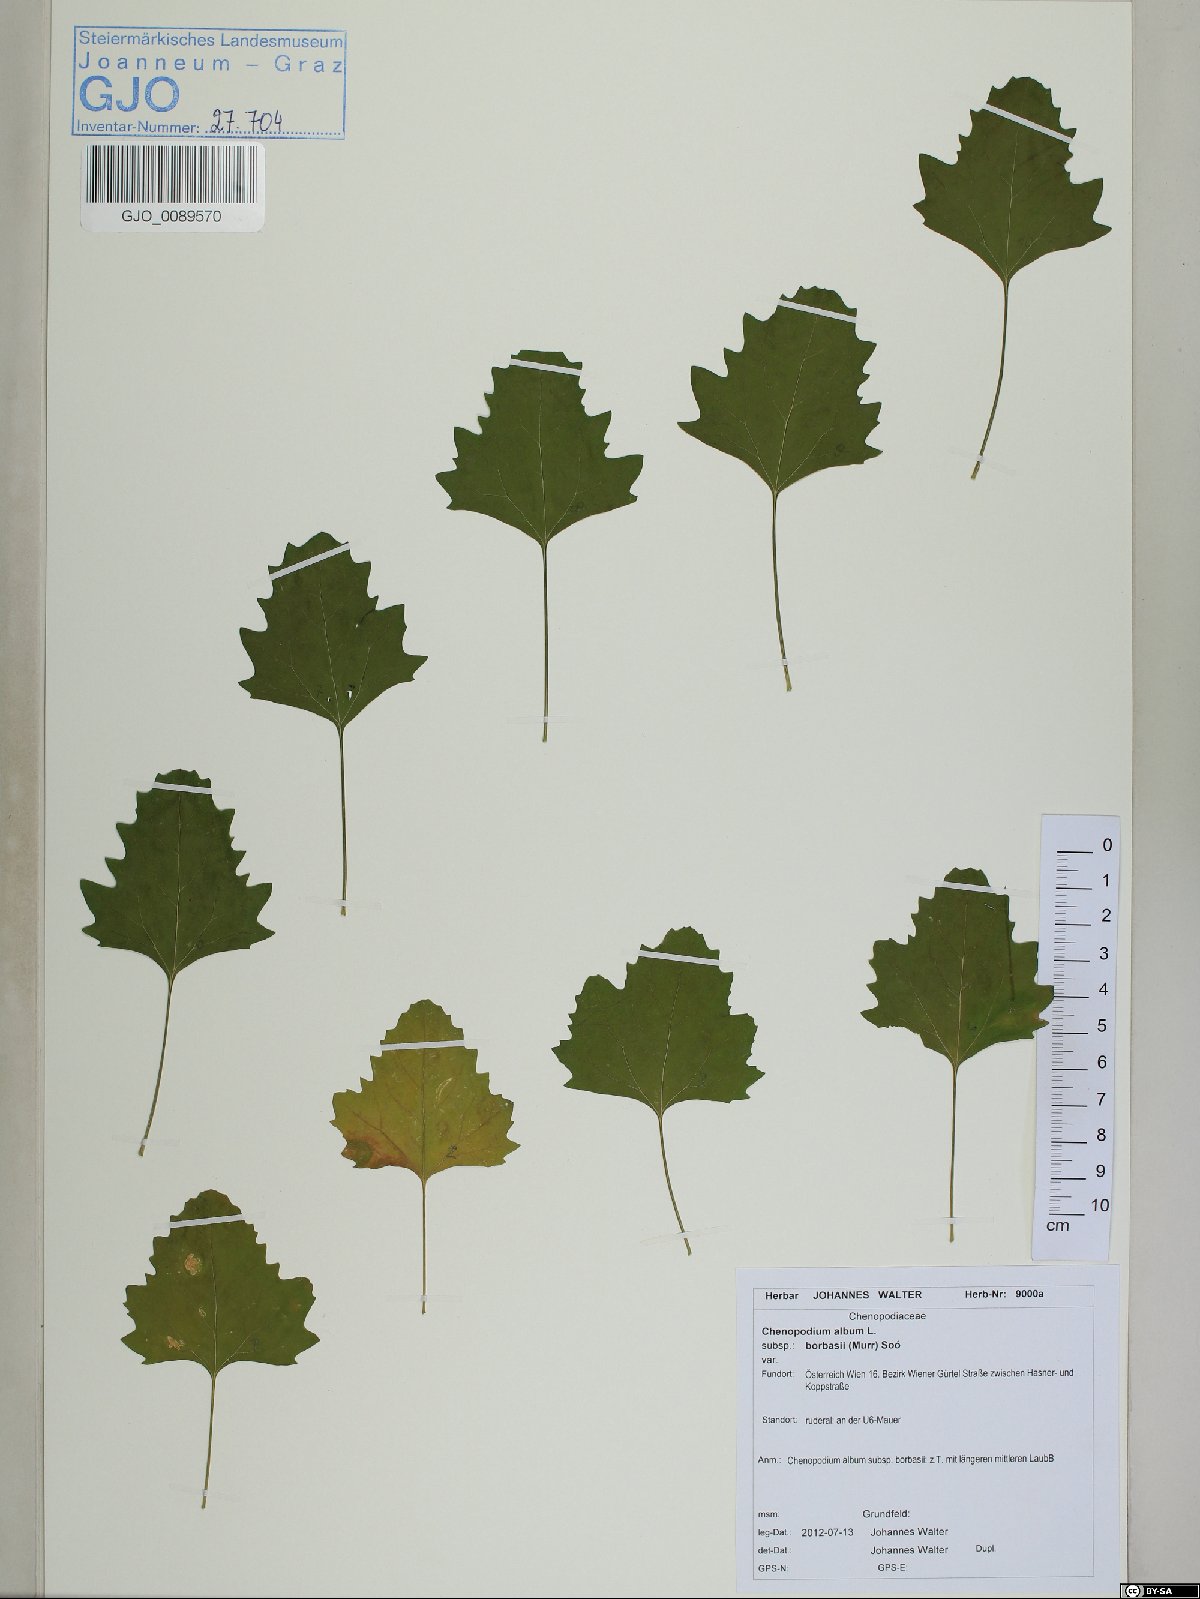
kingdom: Plantae
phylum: Tracheophyta
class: Magnoliopsida
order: Caryophyllales
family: Amaranthaceae
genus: Chenopodium
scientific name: Chenopodium borbasii
